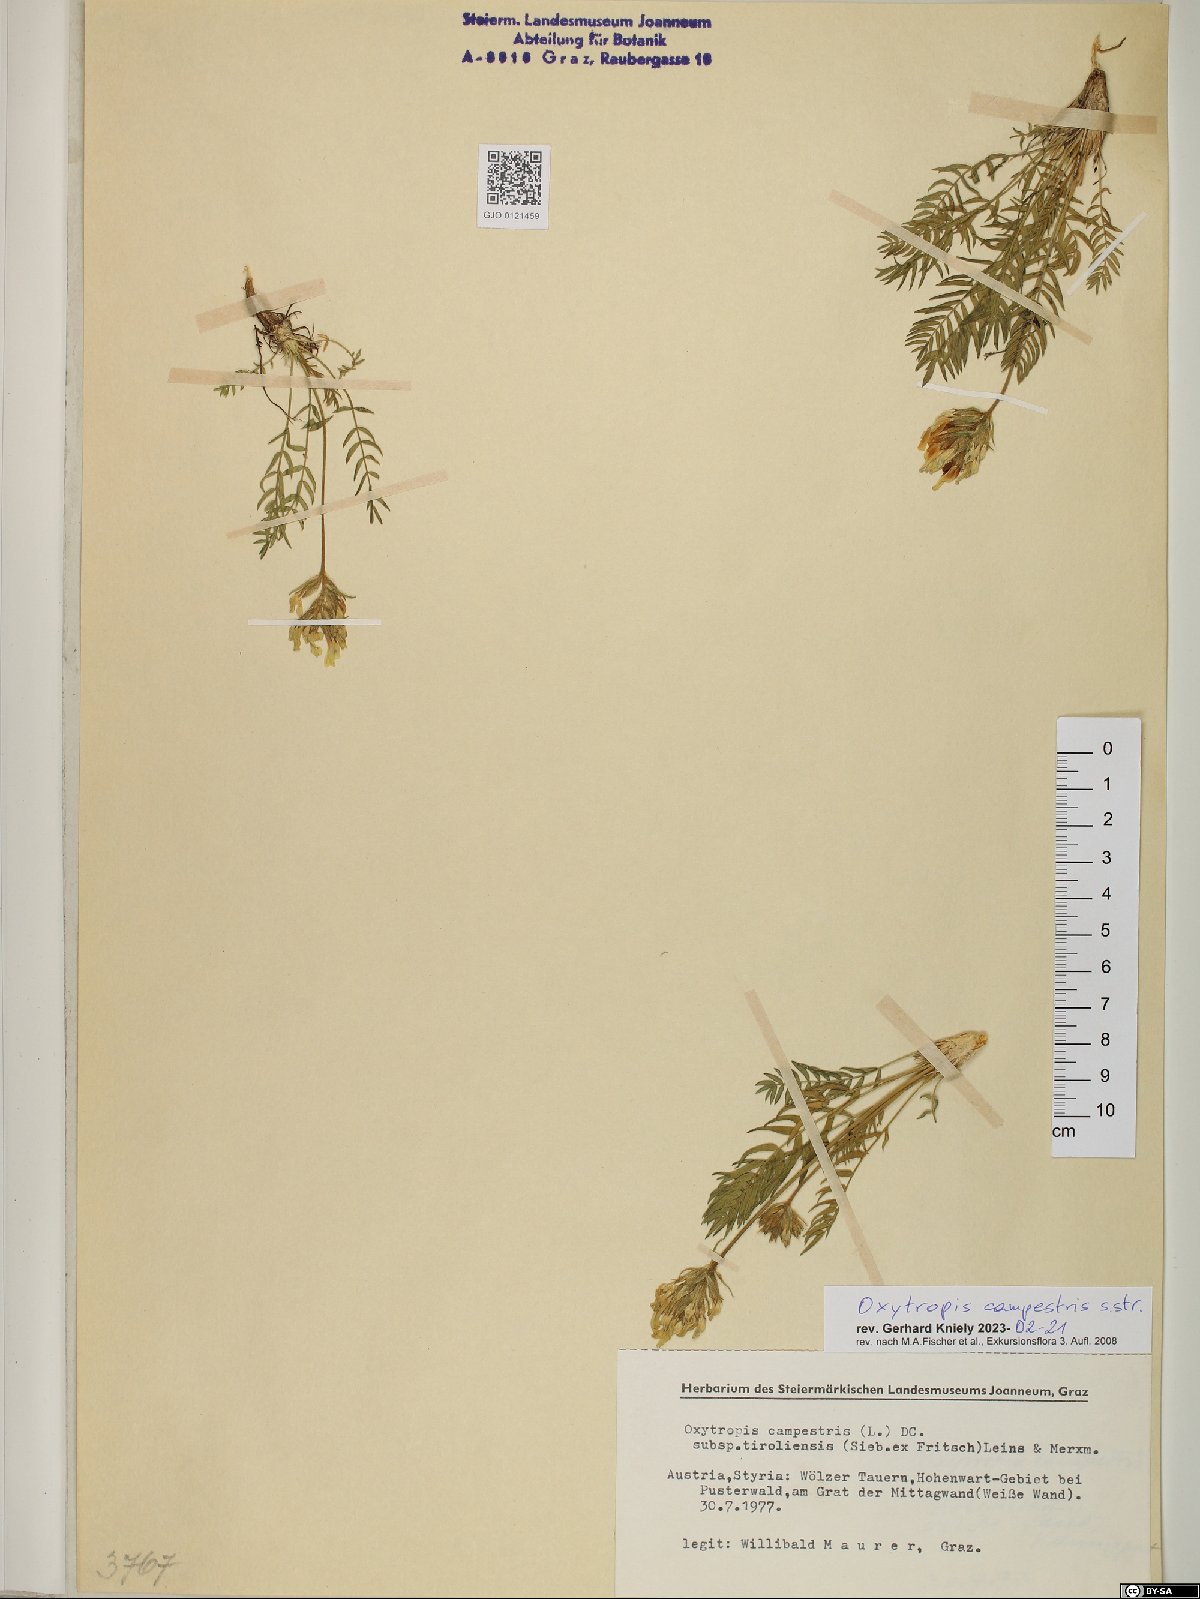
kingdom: Plantae
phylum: Tracheophyta
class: Magnoliopsida
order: Fabales
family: Fabaceae
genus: Oxytropis
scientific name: Oxytropis campestris
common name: Field locoweed
